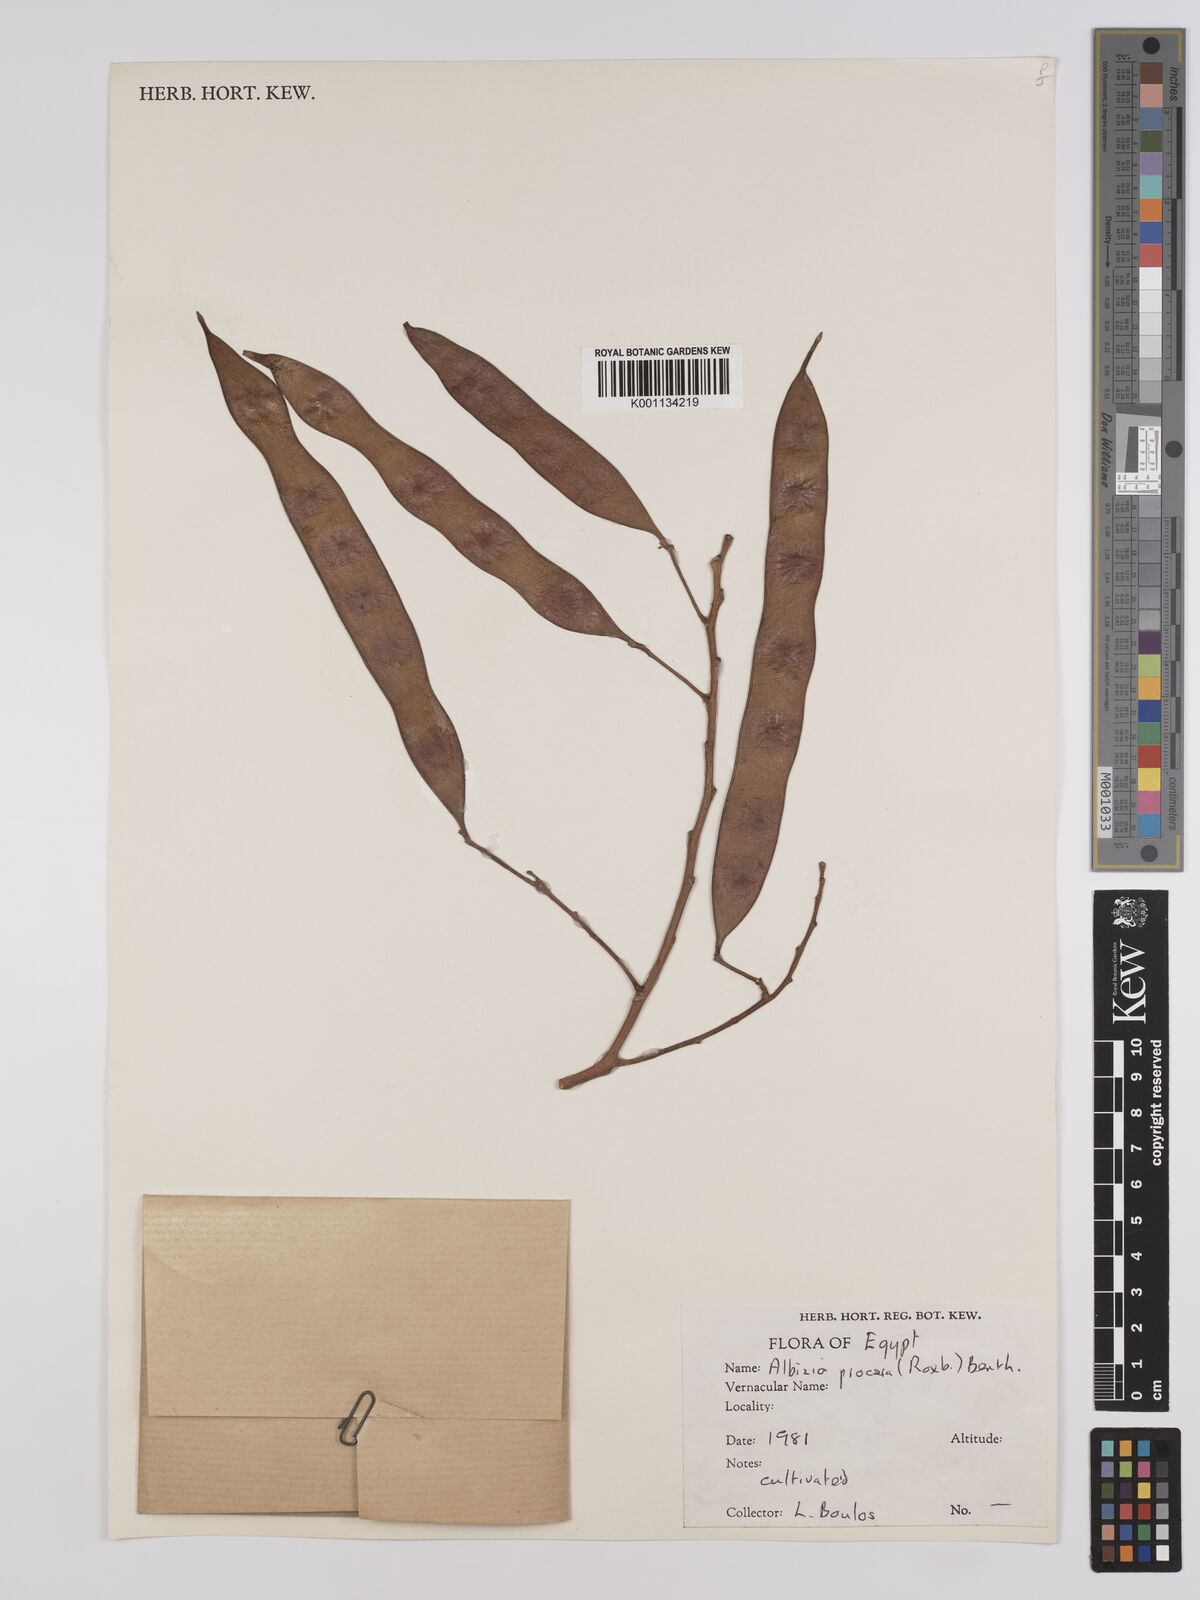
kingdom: Plantae
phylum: Tracheophyta
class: Magnoliopsida
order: Fabales
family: Fabaceae
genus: Albizia
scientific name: Albizia procera
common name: Tall albizia
